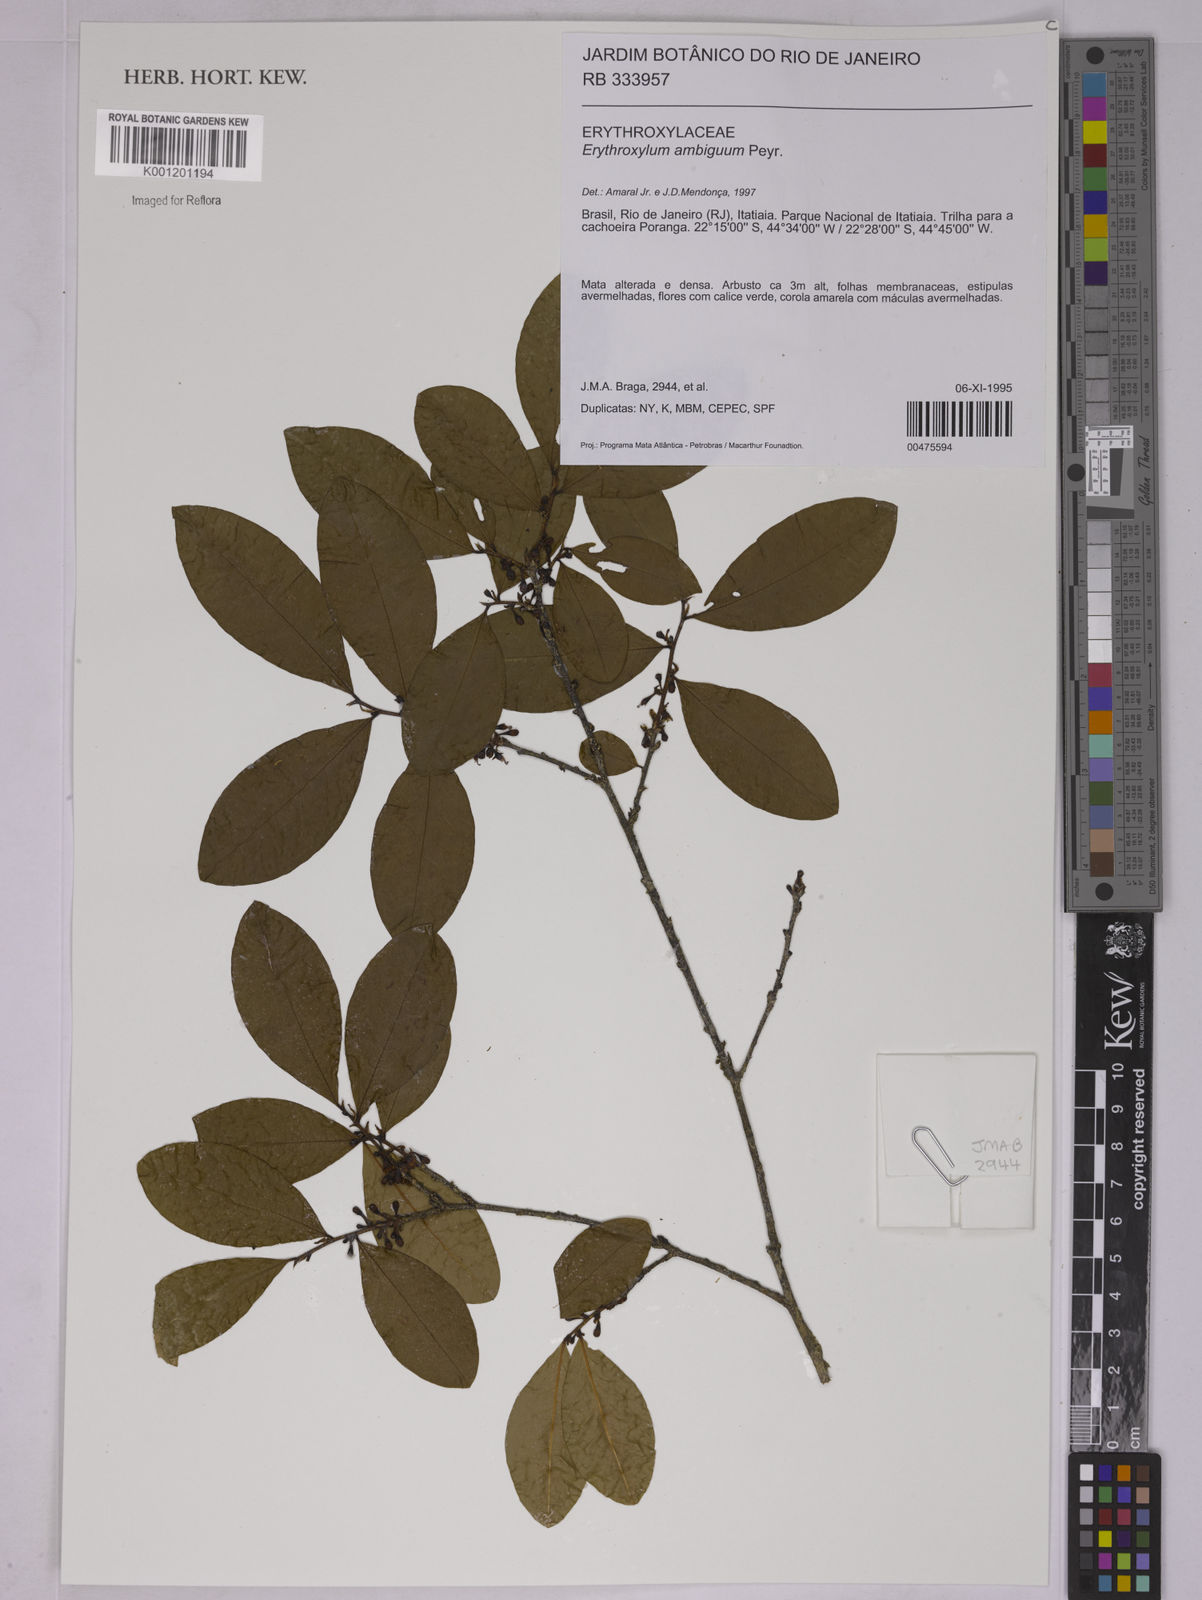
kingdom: Plantae
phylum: Tracheophyta
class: Magnoliopsida
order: Malpighiales
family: Erythroxylaceae
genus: Erythroxylum
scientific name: Erythroxylum ambiguum
